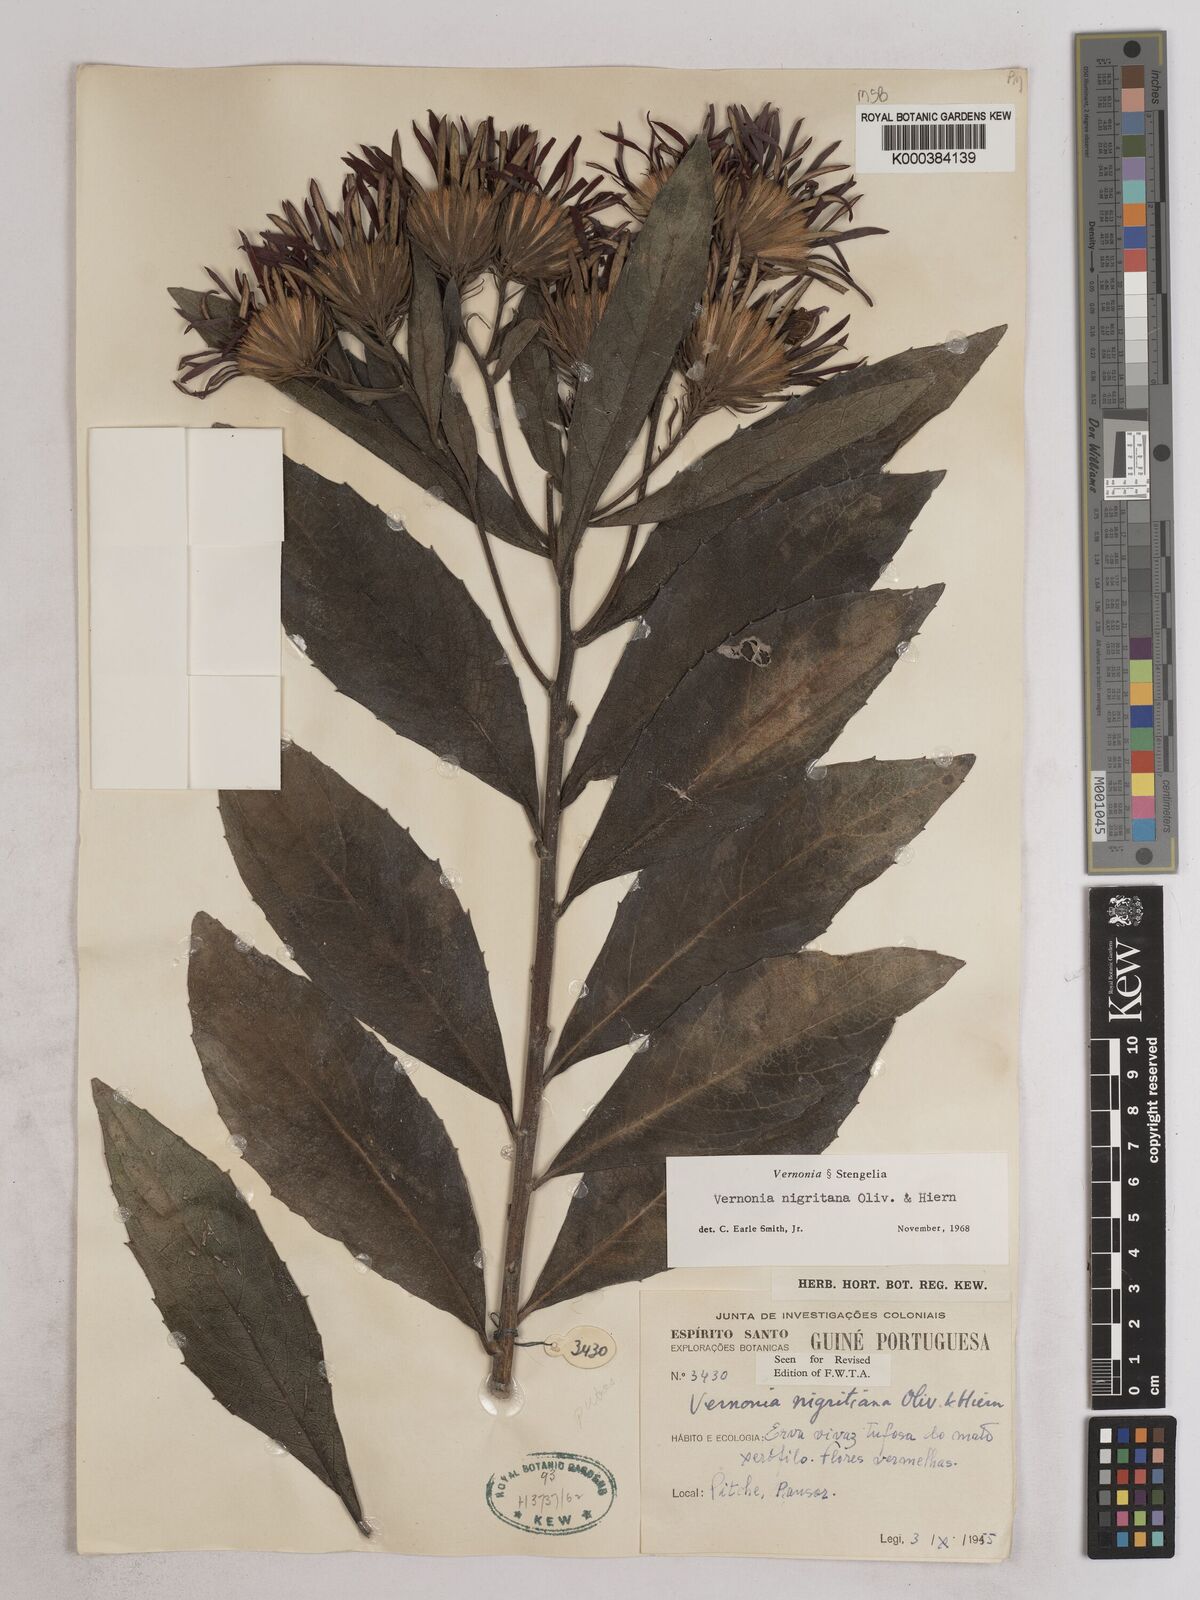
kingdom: Plantae
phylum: Tracheophyta
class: Magnoliopsida
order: Asterales
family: Asteraceae
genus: Linzia
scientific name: Linzia nigritiana
